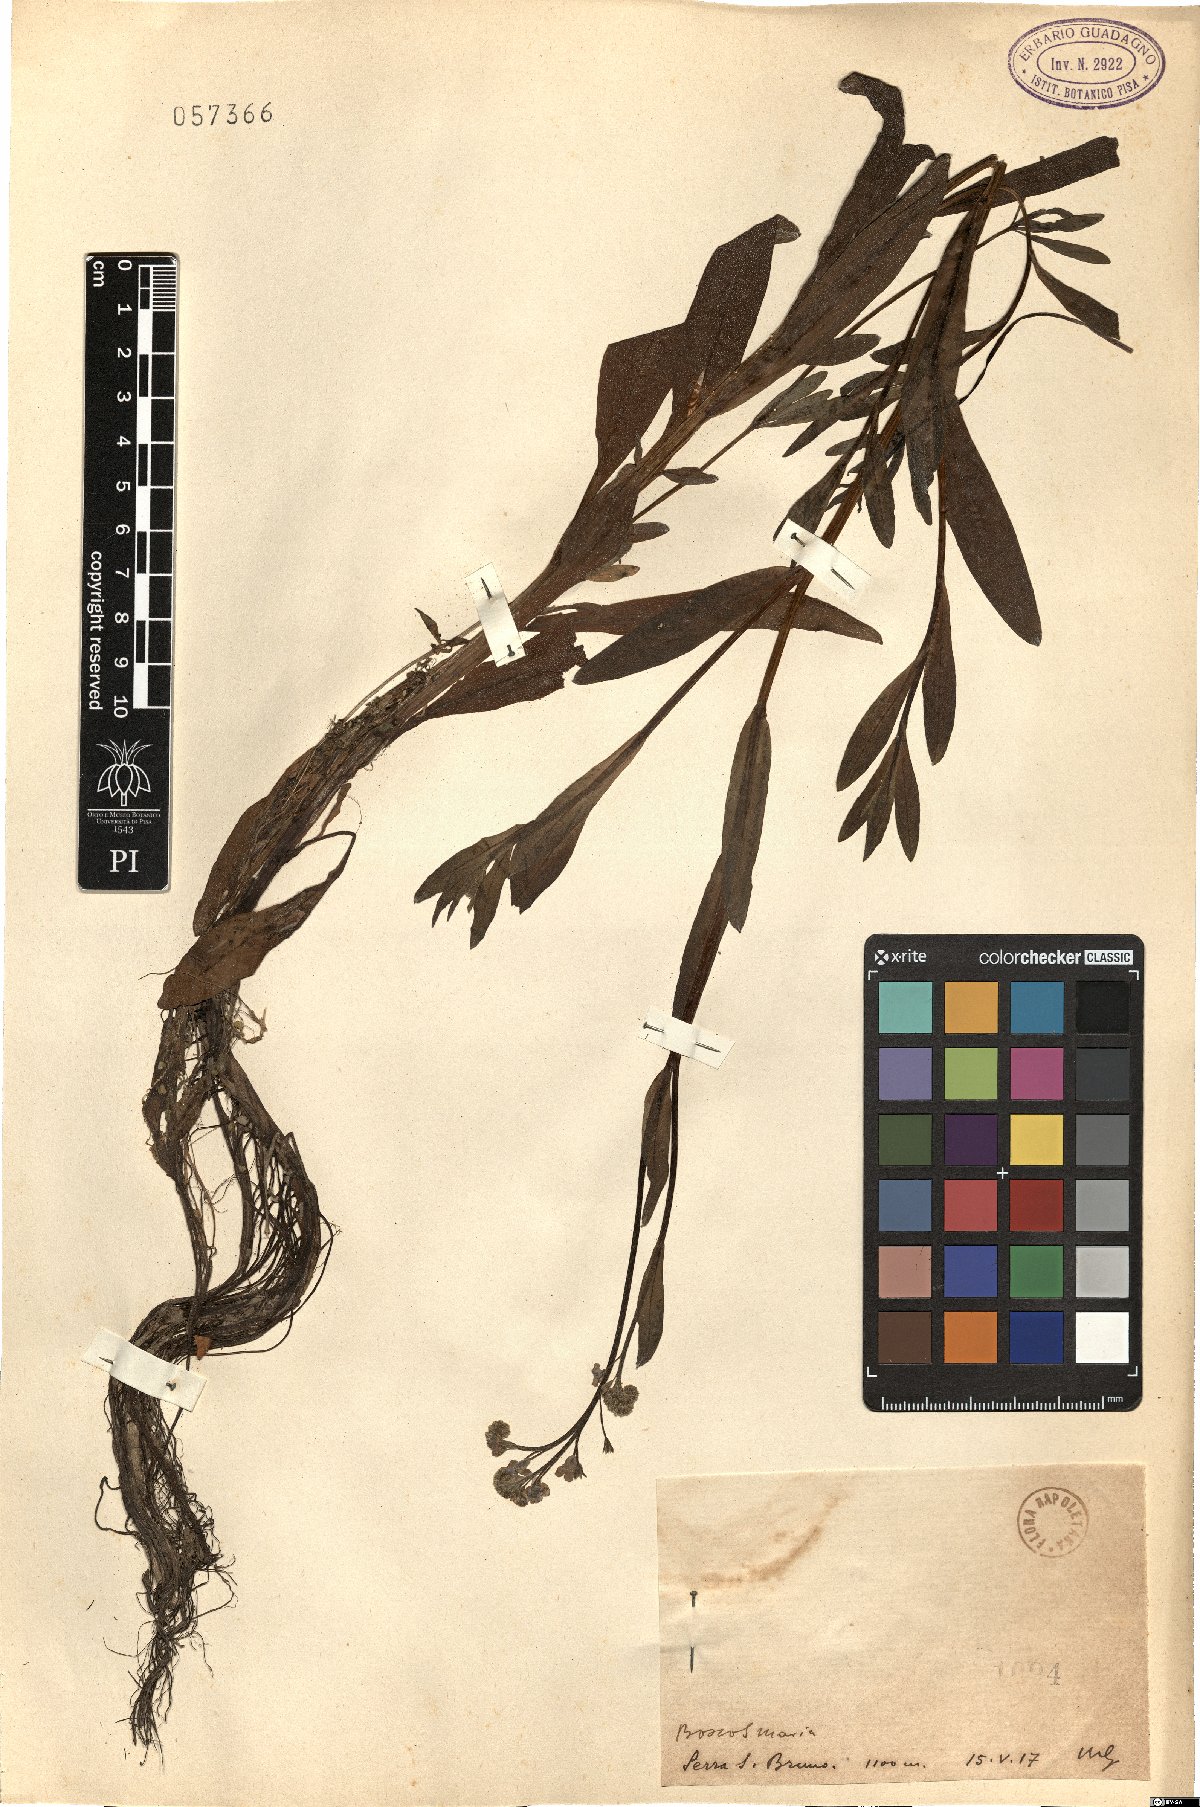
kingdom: Plantae
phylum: Tracheophyta
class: Magnoliopsida
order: Boraginales
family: Boraginaceae
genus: Myosotis
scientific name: Myosotis
